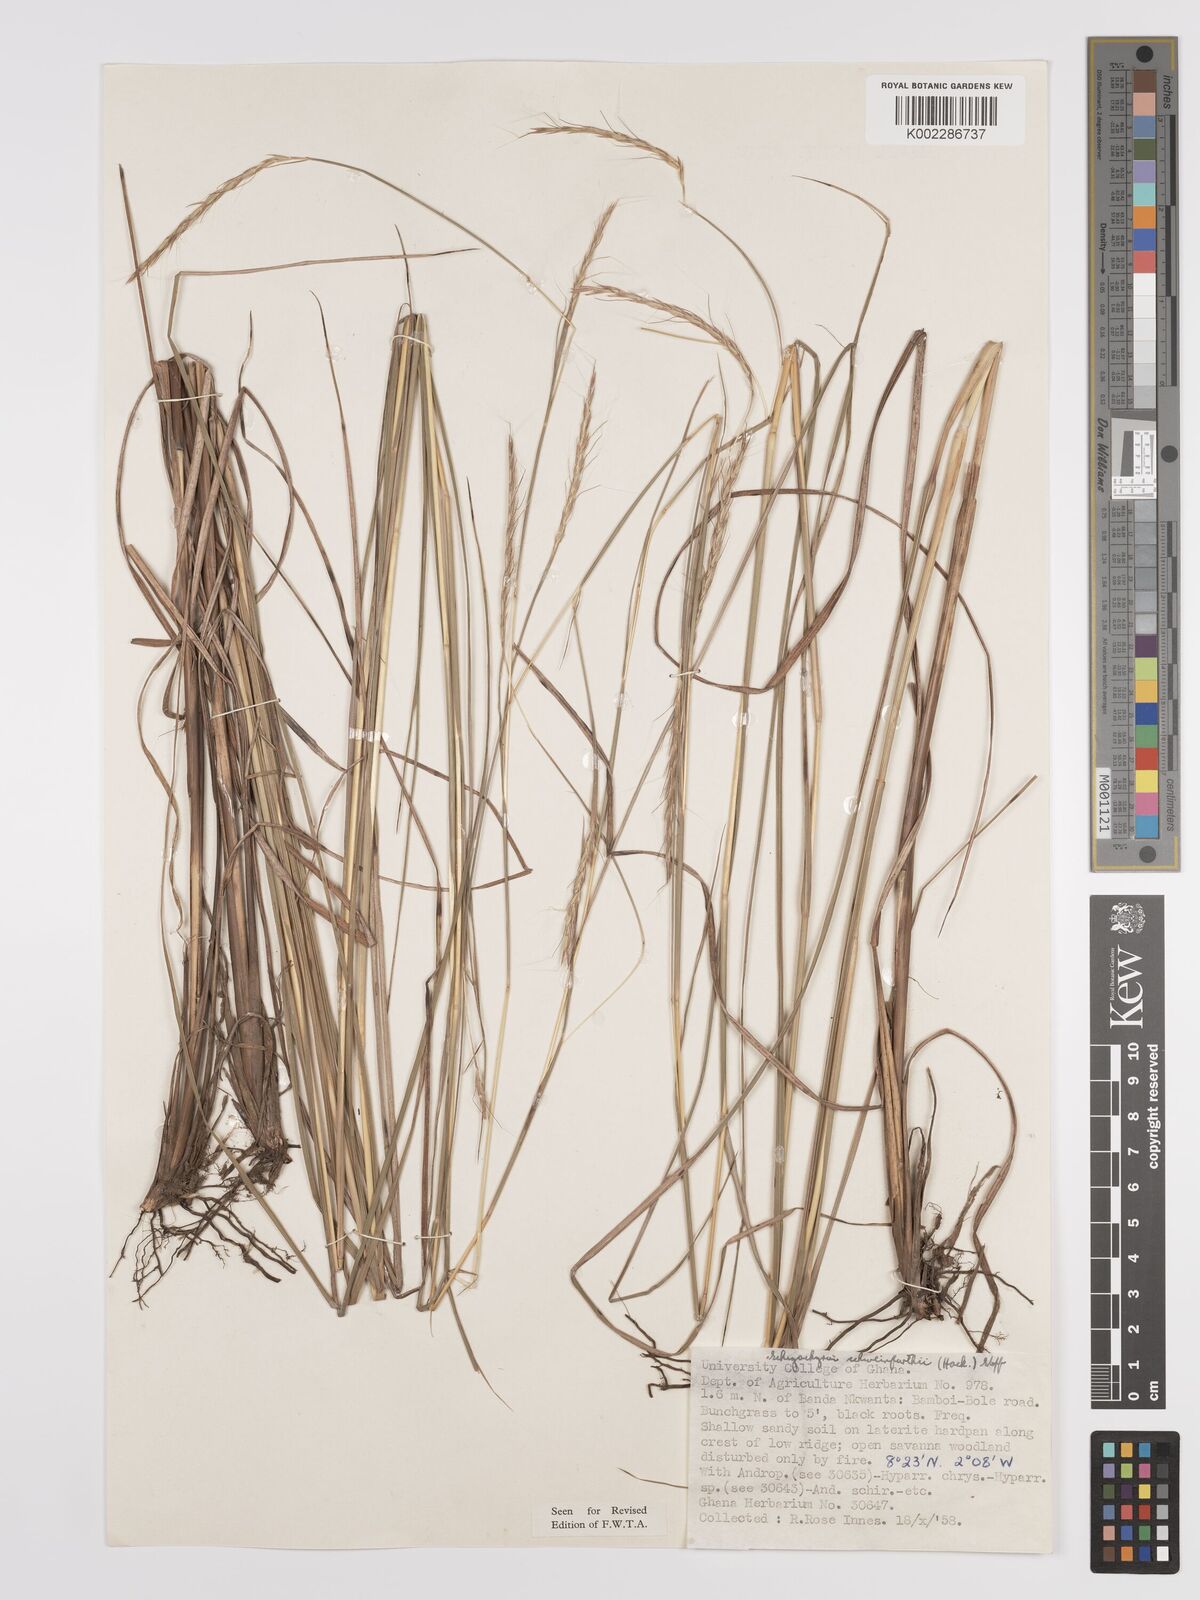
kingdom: Plantae
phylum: Tracheophyta
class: Liliopsida
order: Poales
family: Poaceae
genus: Andropogon
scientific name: Andropogon schweinfurthii
